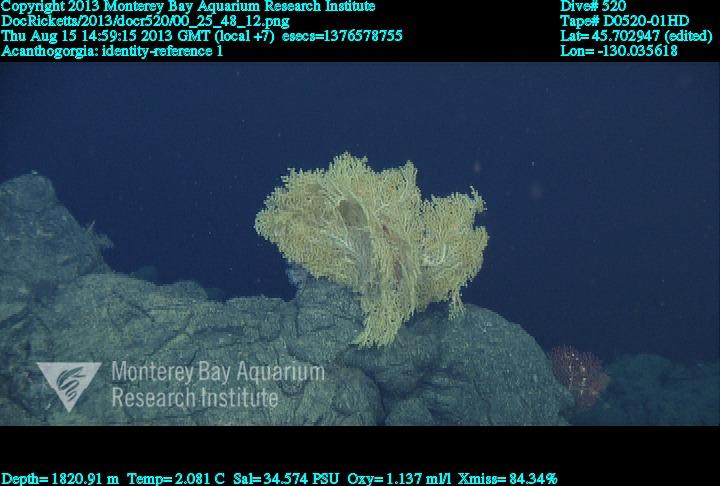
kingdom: Animalia
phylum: Cnidaria
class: Anthozoa
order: Malacalcyonacea
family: Paramuriceidae
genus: Acanthogorgia
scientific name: Acanthogorgia
